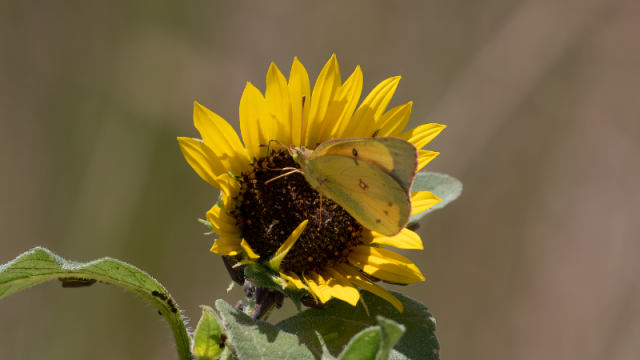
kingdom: Animalia
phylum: Arthropoda
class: Insecta
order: Lepidoptera
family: Pieridae
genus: Colias
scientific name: Colias eurytheme
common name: Orange Sulphur
